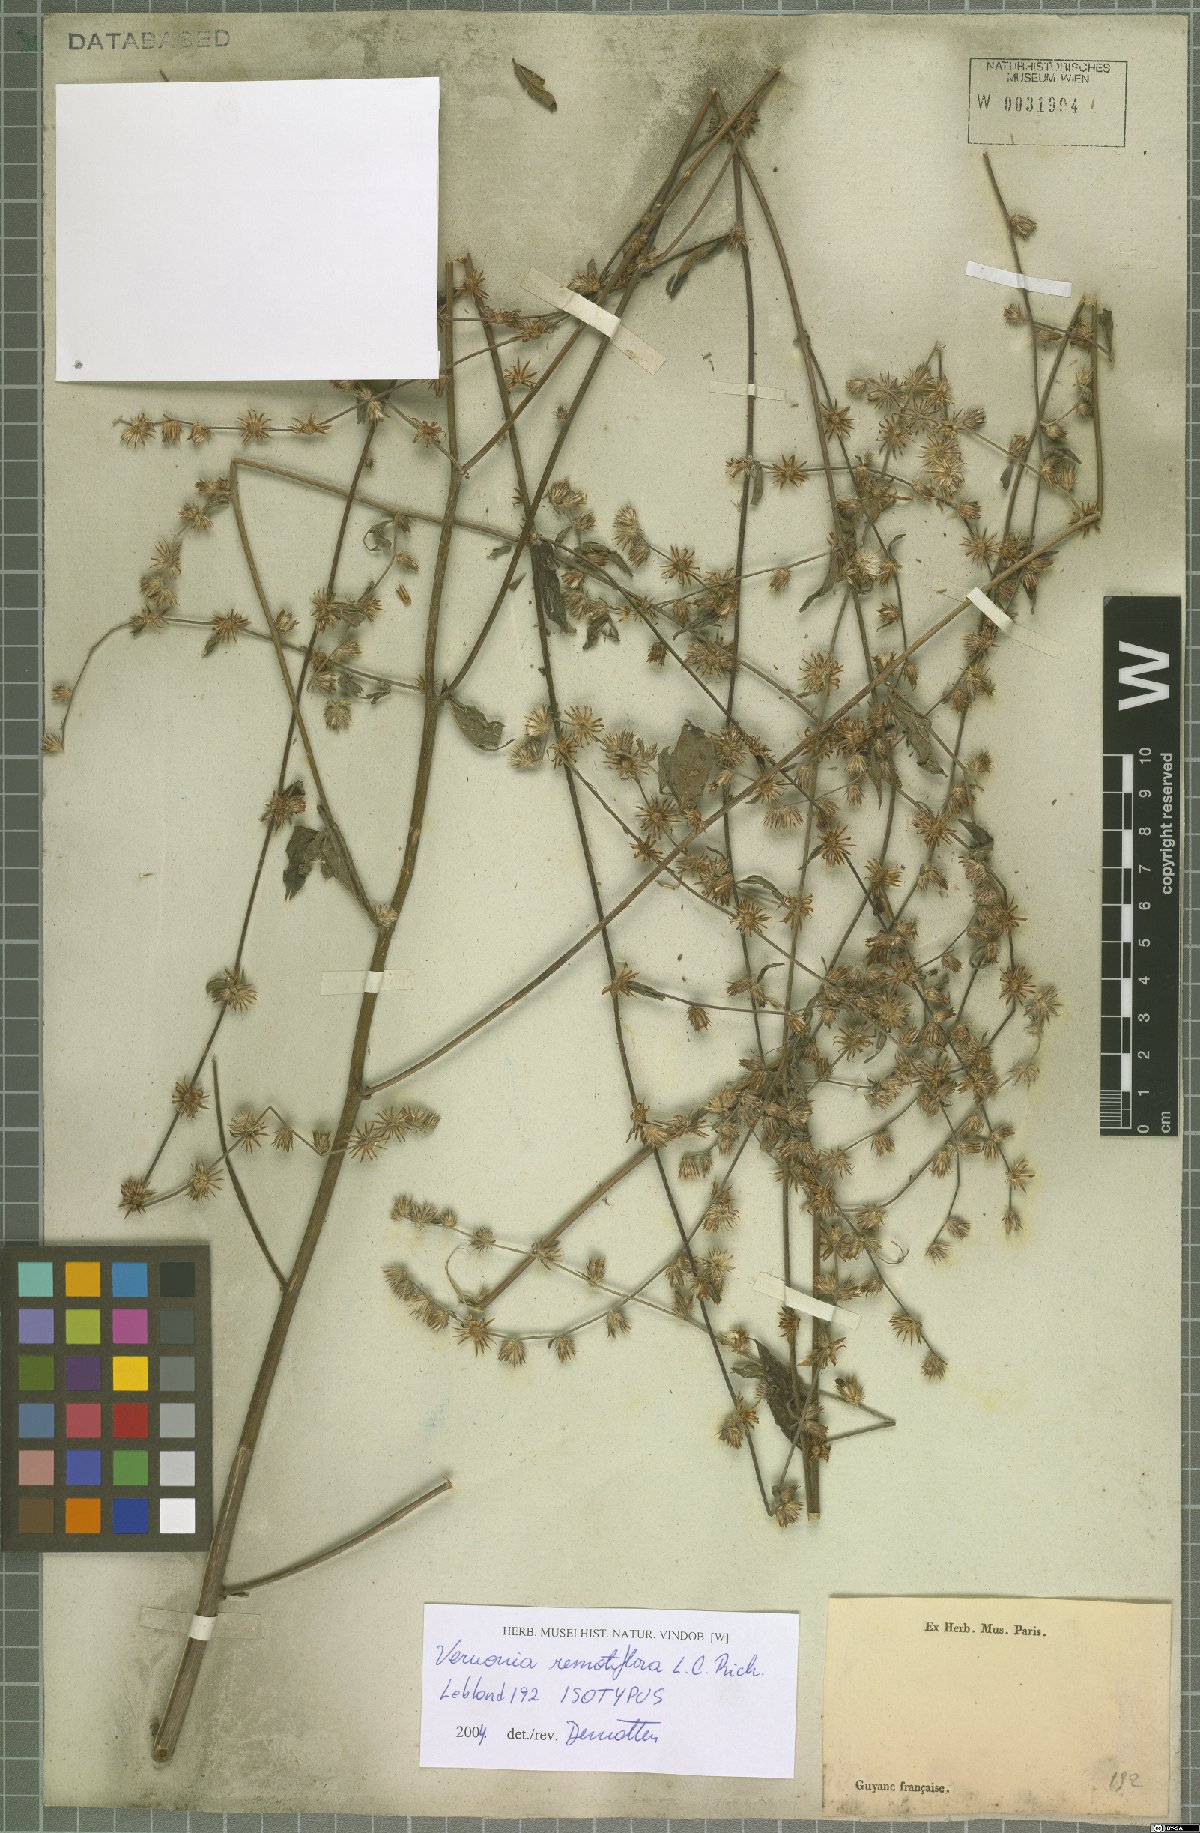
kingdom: Plantae
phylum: Tracheophyta
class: Magnoliopsida
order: Asterales
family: Asteraceae
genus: Lepidaploa
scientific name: Lepidaploa remotiflora
